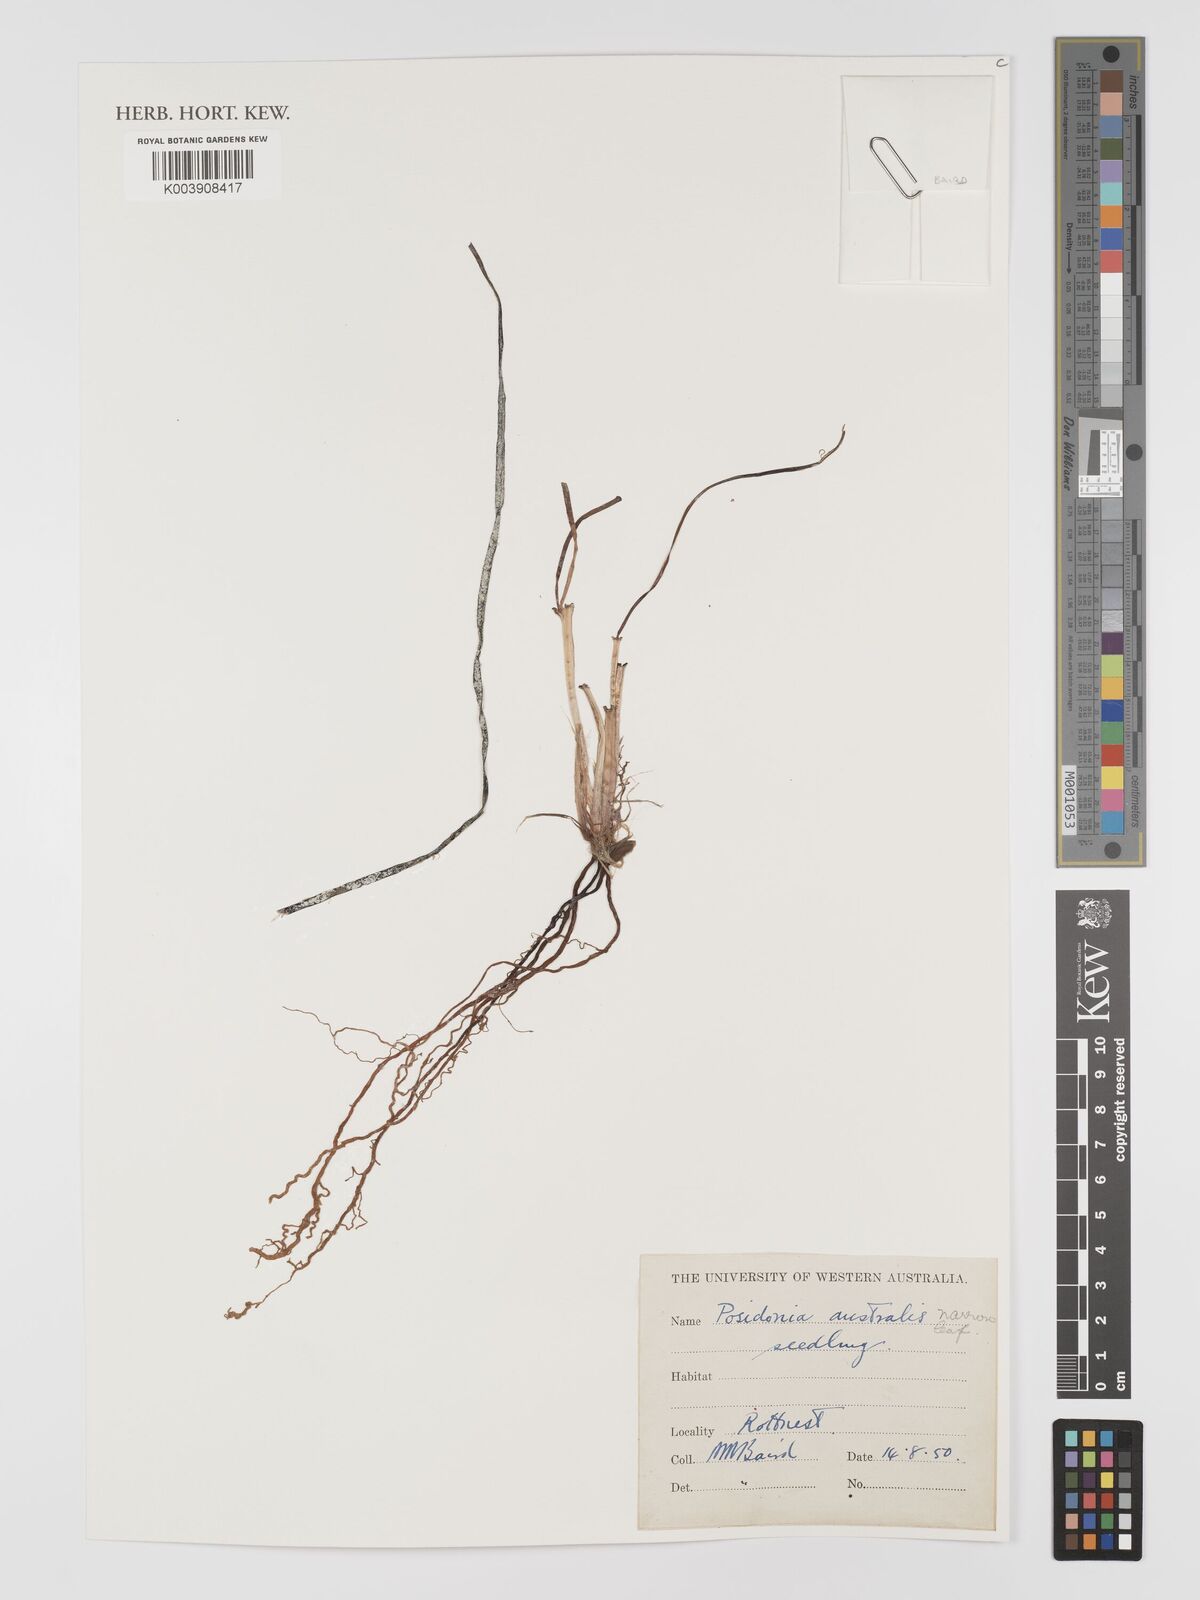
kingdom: Plantae
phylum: Tracheophyta
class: Liliopsida
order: Alismatales
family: Posidoniaceae
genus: Posidonia
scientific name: Posidonia australis
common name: Species code: pa
